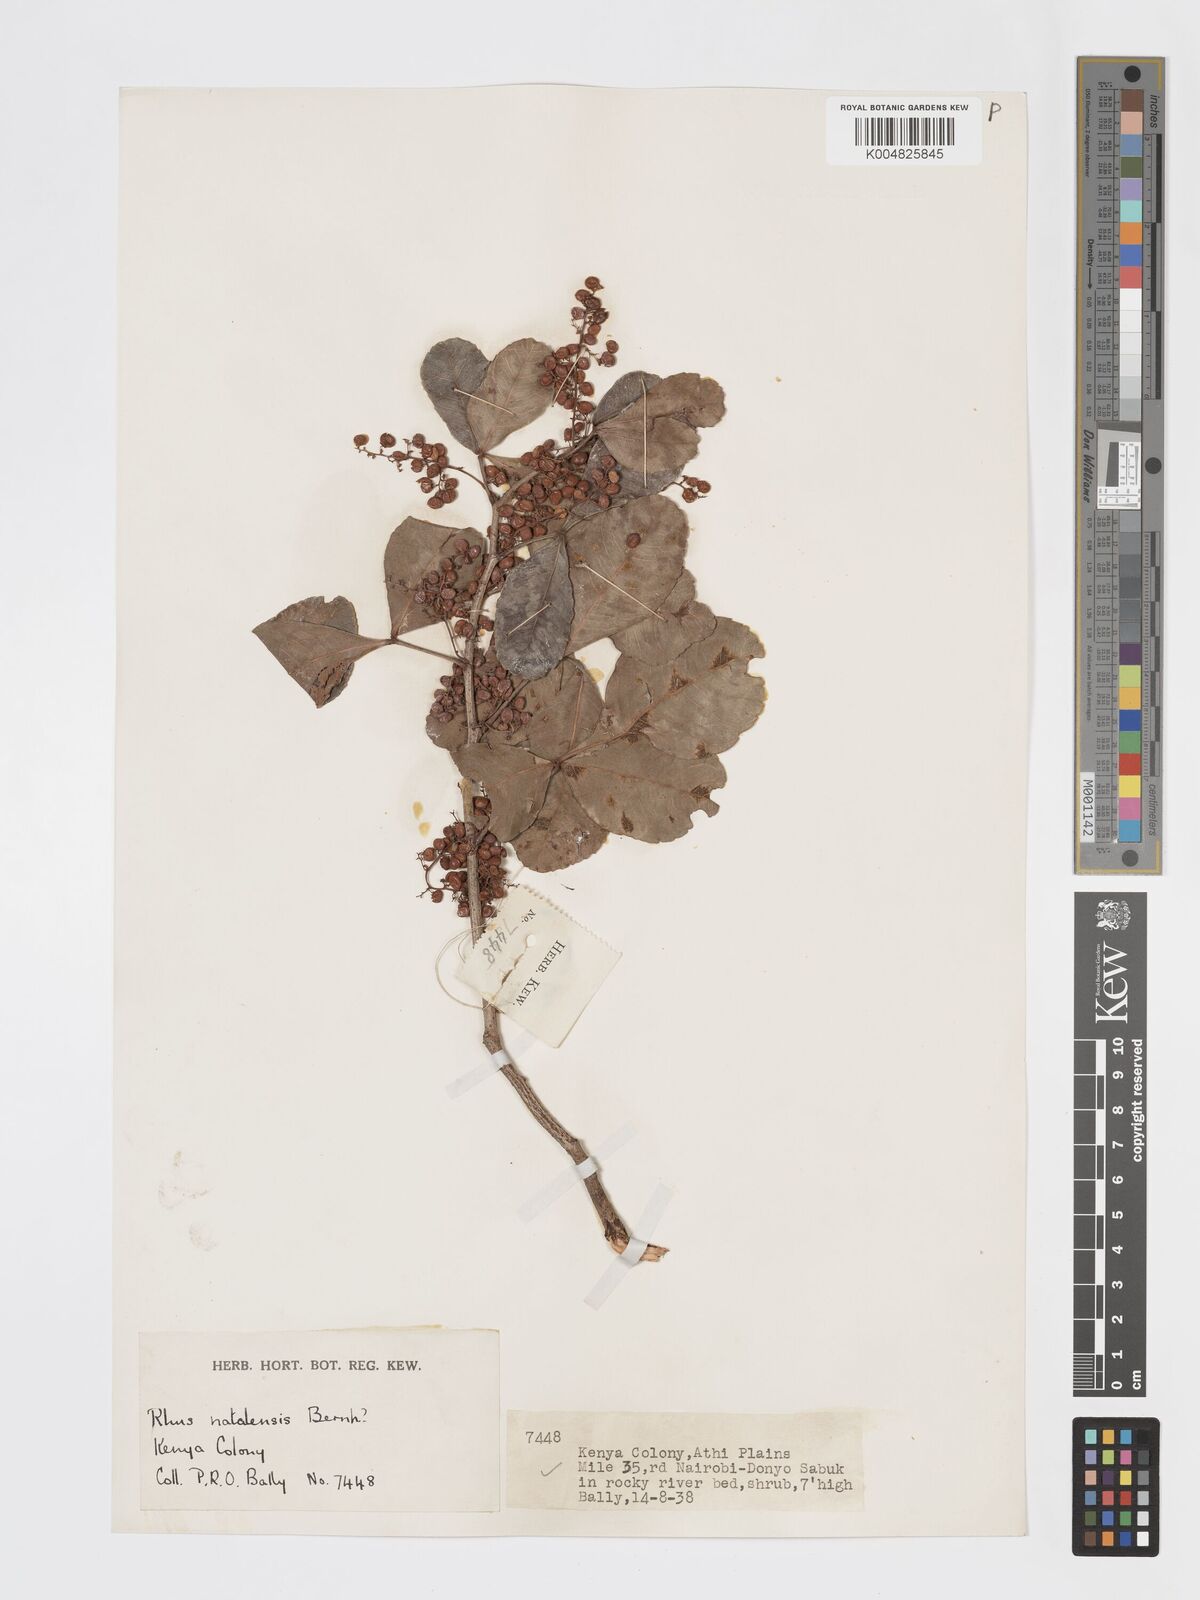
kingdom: Plantae
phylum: Tracheophyta
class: Magnoliopsida
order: Sapindales
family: Anacardiaceae
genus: Searsia
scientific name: Searsia natalensis
